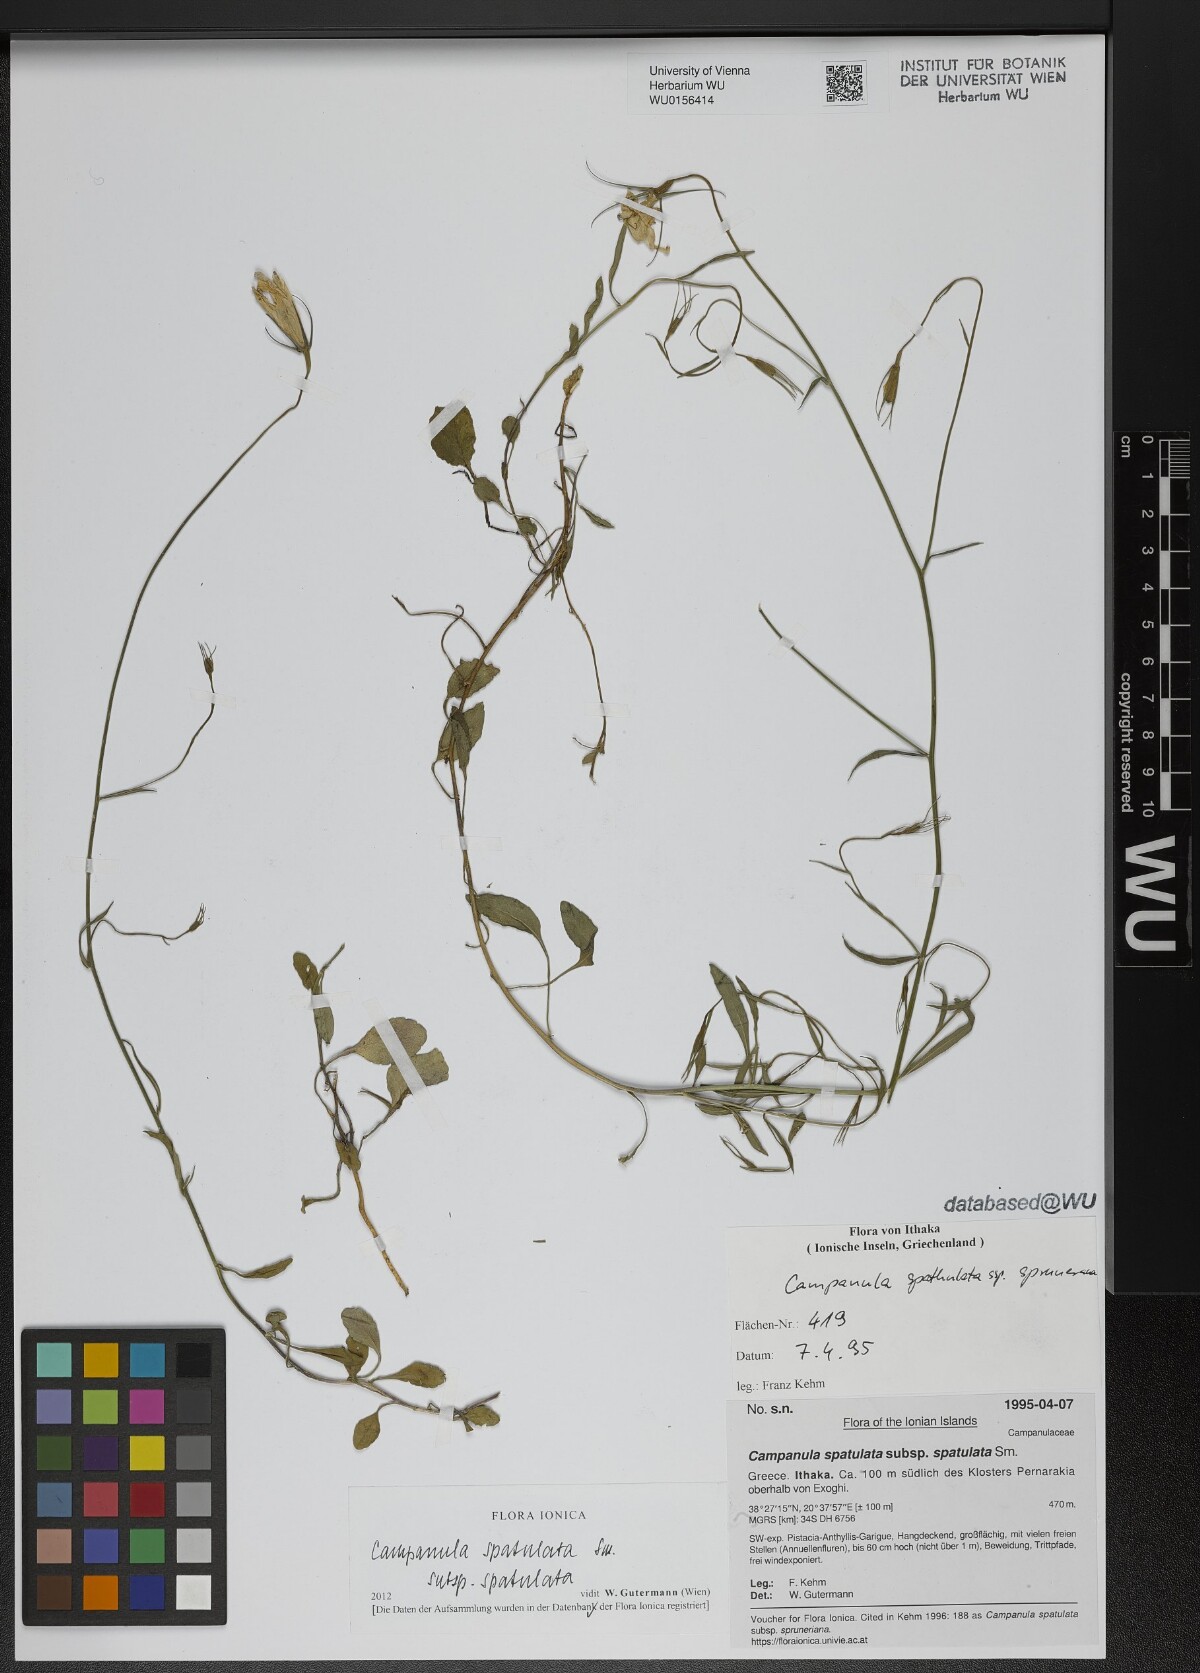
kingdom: Plantae
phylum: Tracheophyta
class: Magnoliopsida
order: Asterales
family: Campanulaceae
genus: Campanula
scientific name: Campanula spatulata
